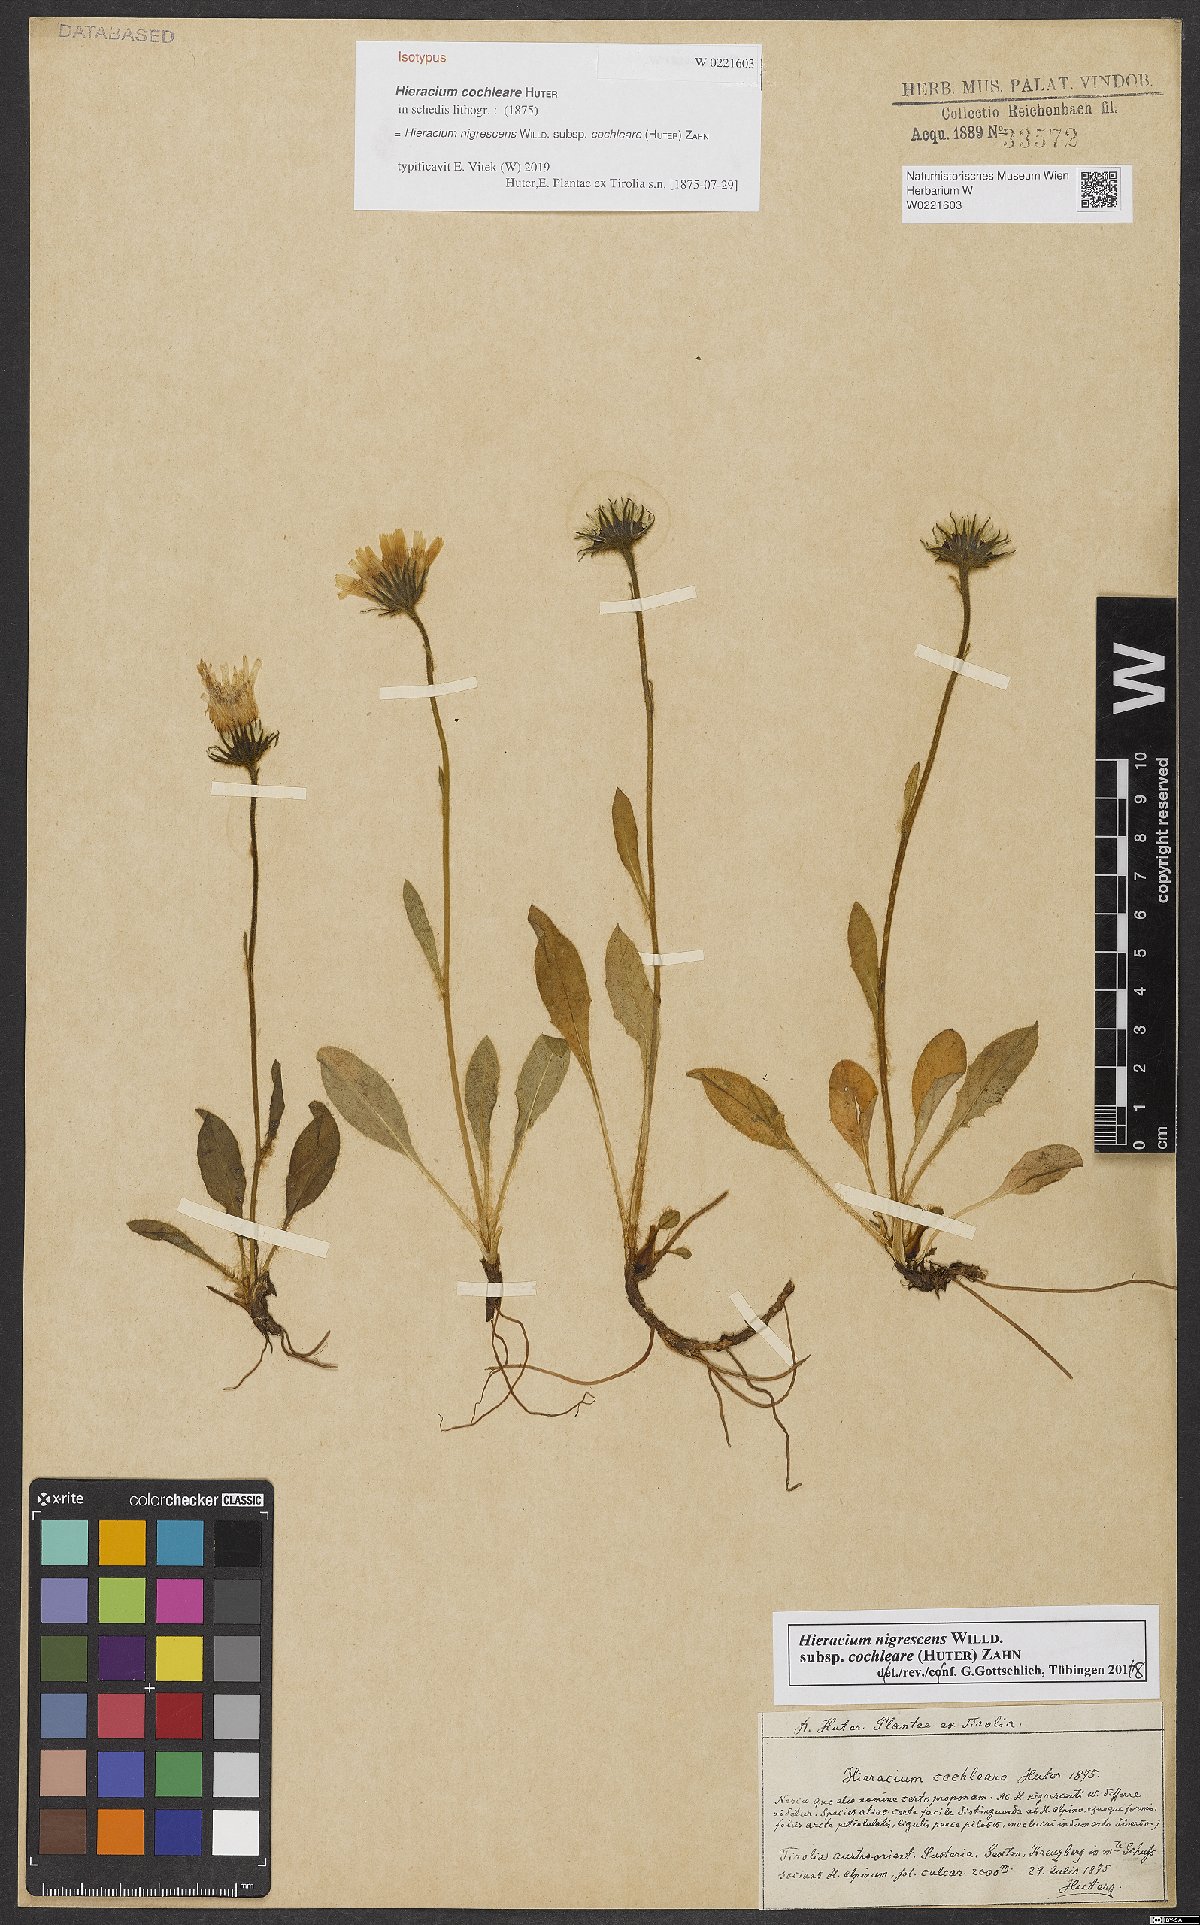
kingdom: Plantae
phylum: Tracheophyta
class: Magnoliopsida
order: Asterales
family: Asteraceae
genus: Hieracium
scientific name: Hieracium nigrescens
